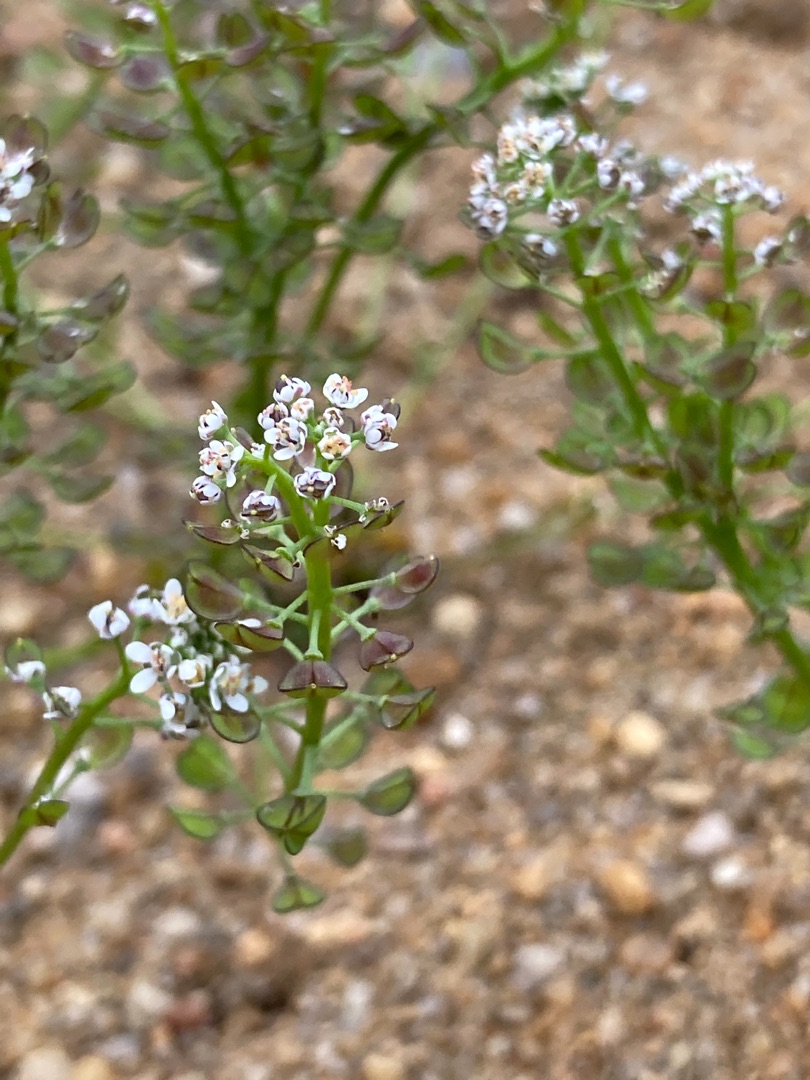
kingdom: Plantae
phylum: Tracheophyta
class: Magnoliopsida
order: Brassicales
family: Brassicaceae
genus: Teesdalia
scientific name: Teesdalia nudicaulis
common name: Flipkrave
